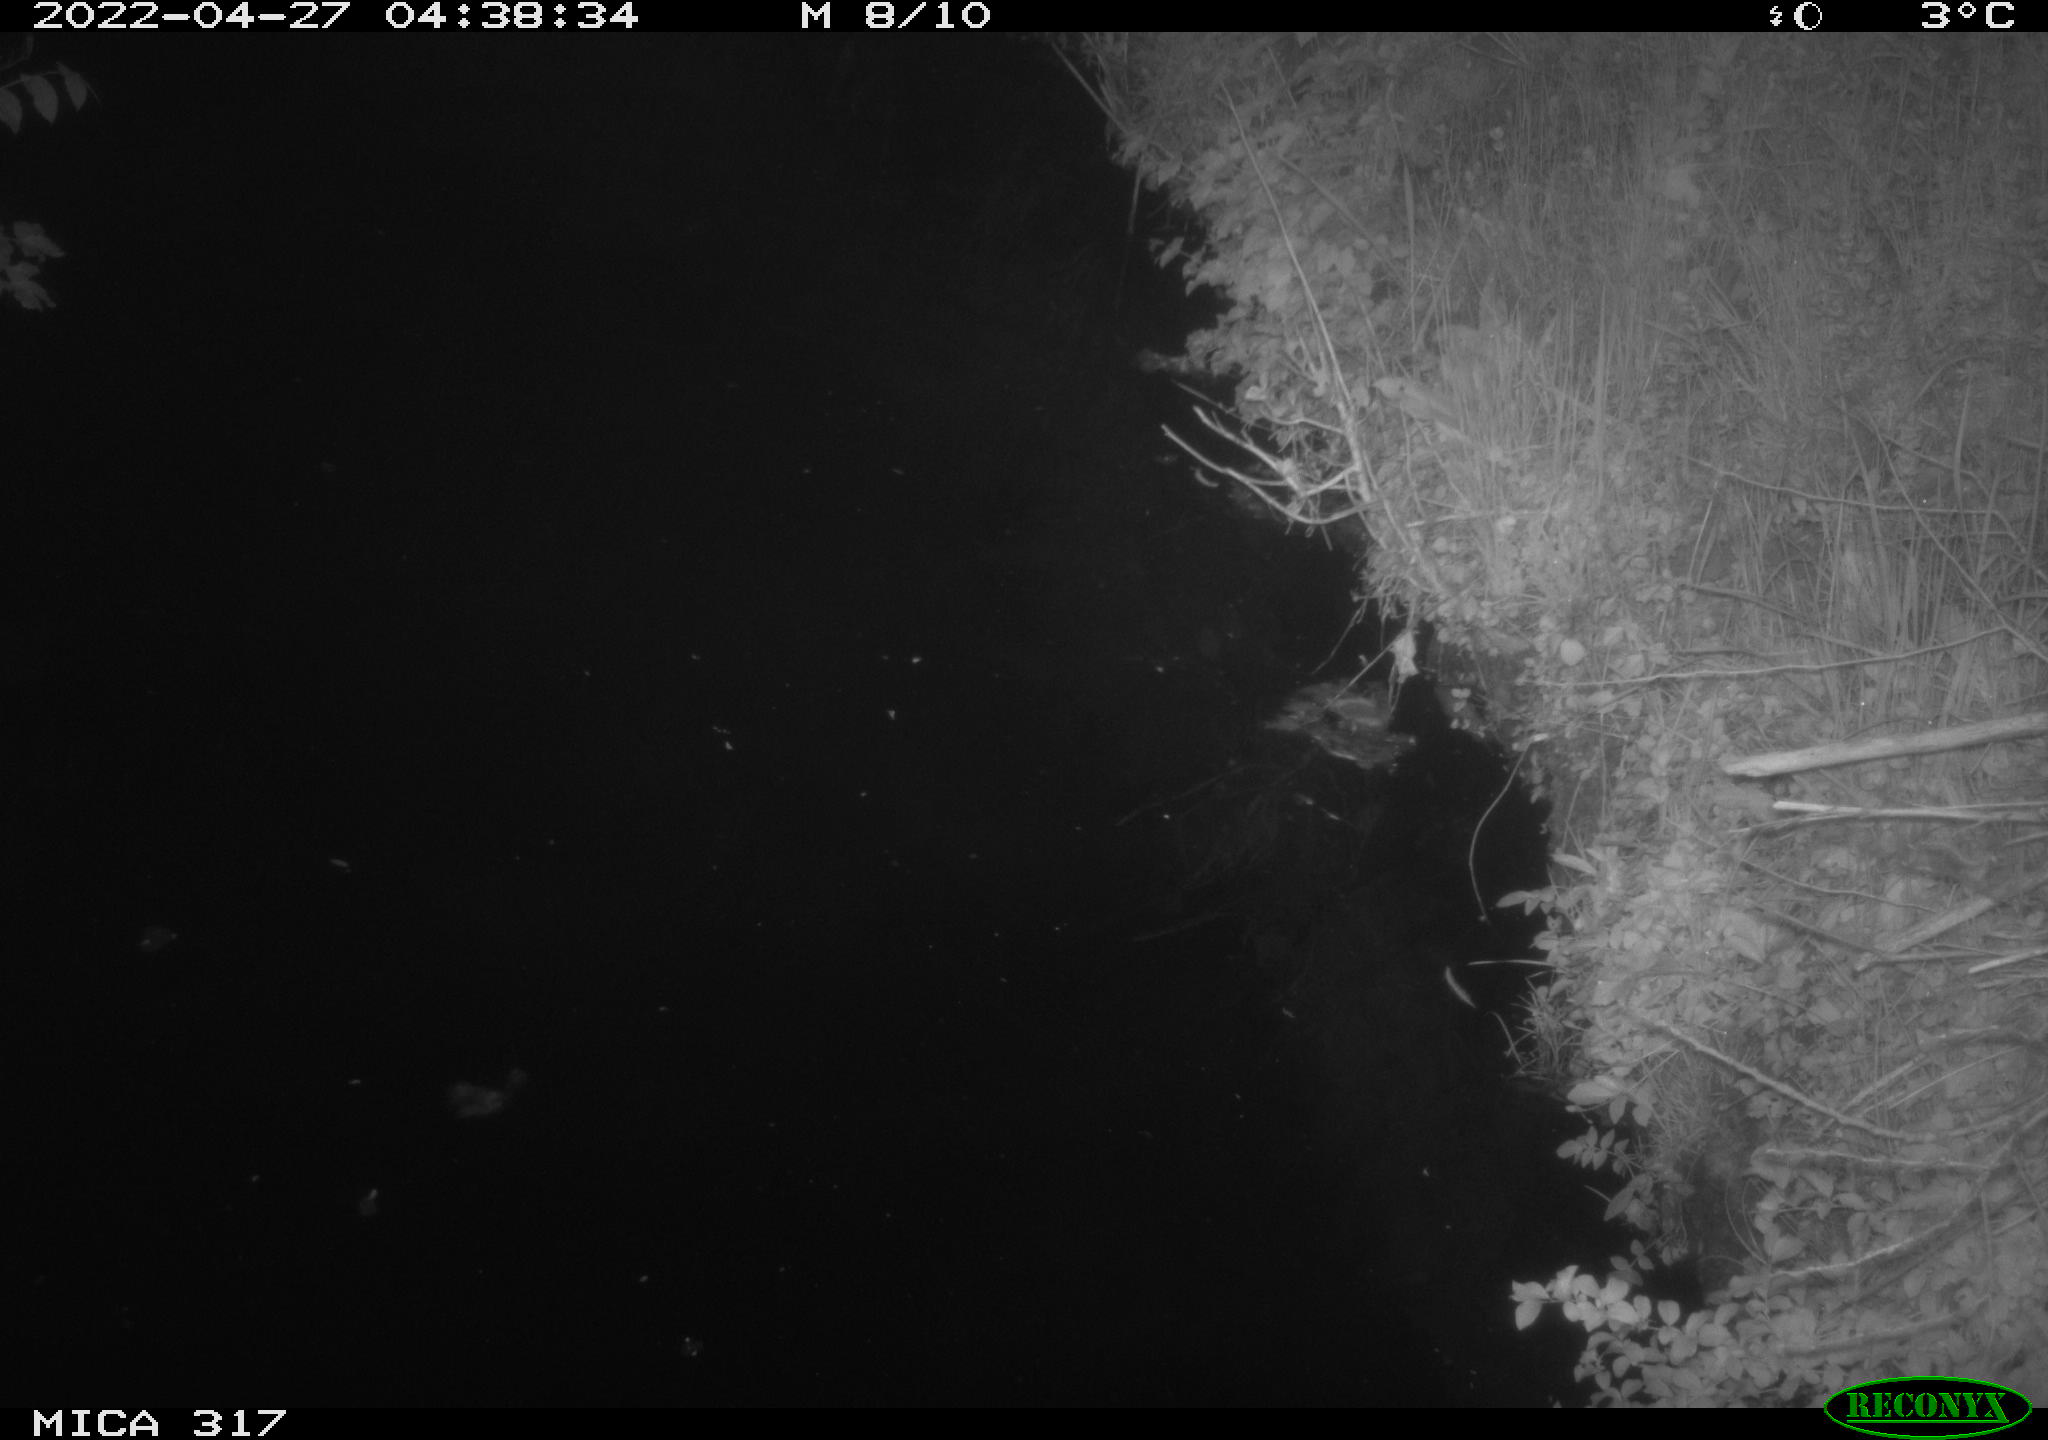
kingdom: Animalia
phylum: Chordata
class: Aves
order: Anseriformes
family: Anatidae
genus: Anas
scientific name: Anas platyrhynchos
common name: Mallard
